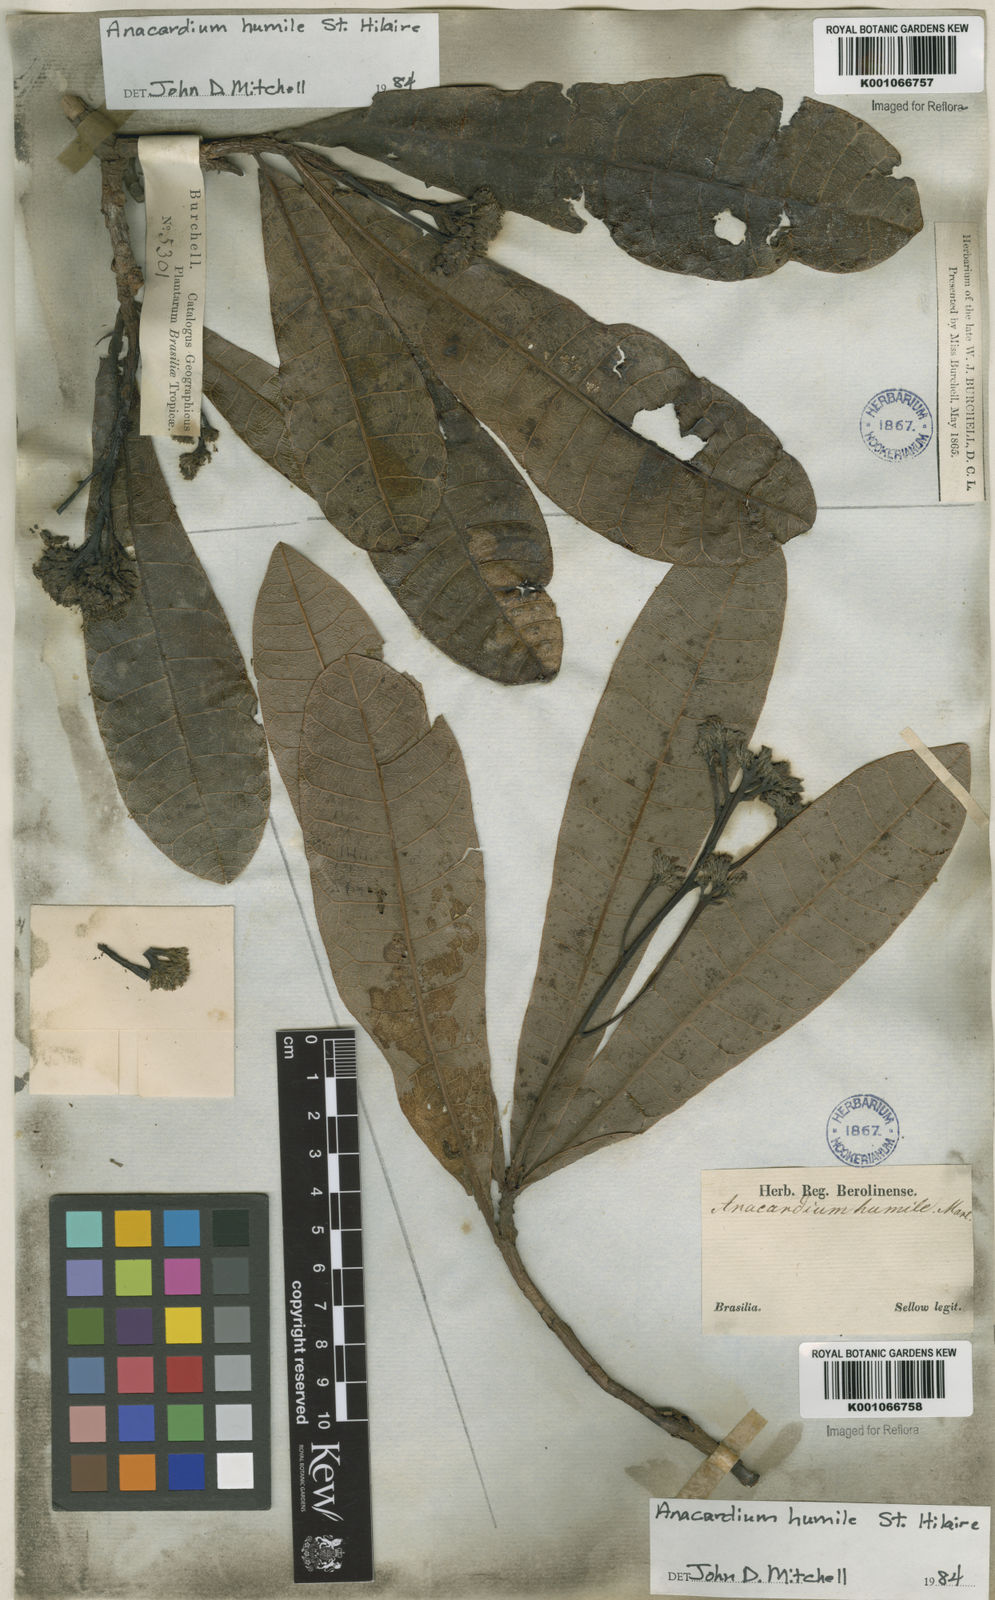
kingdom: Plantae
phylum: Tracheophyta
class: Magnoliopsida
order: Sapindales
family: Anacardiaceae
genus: Anacardium
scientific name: Anacardium humile
